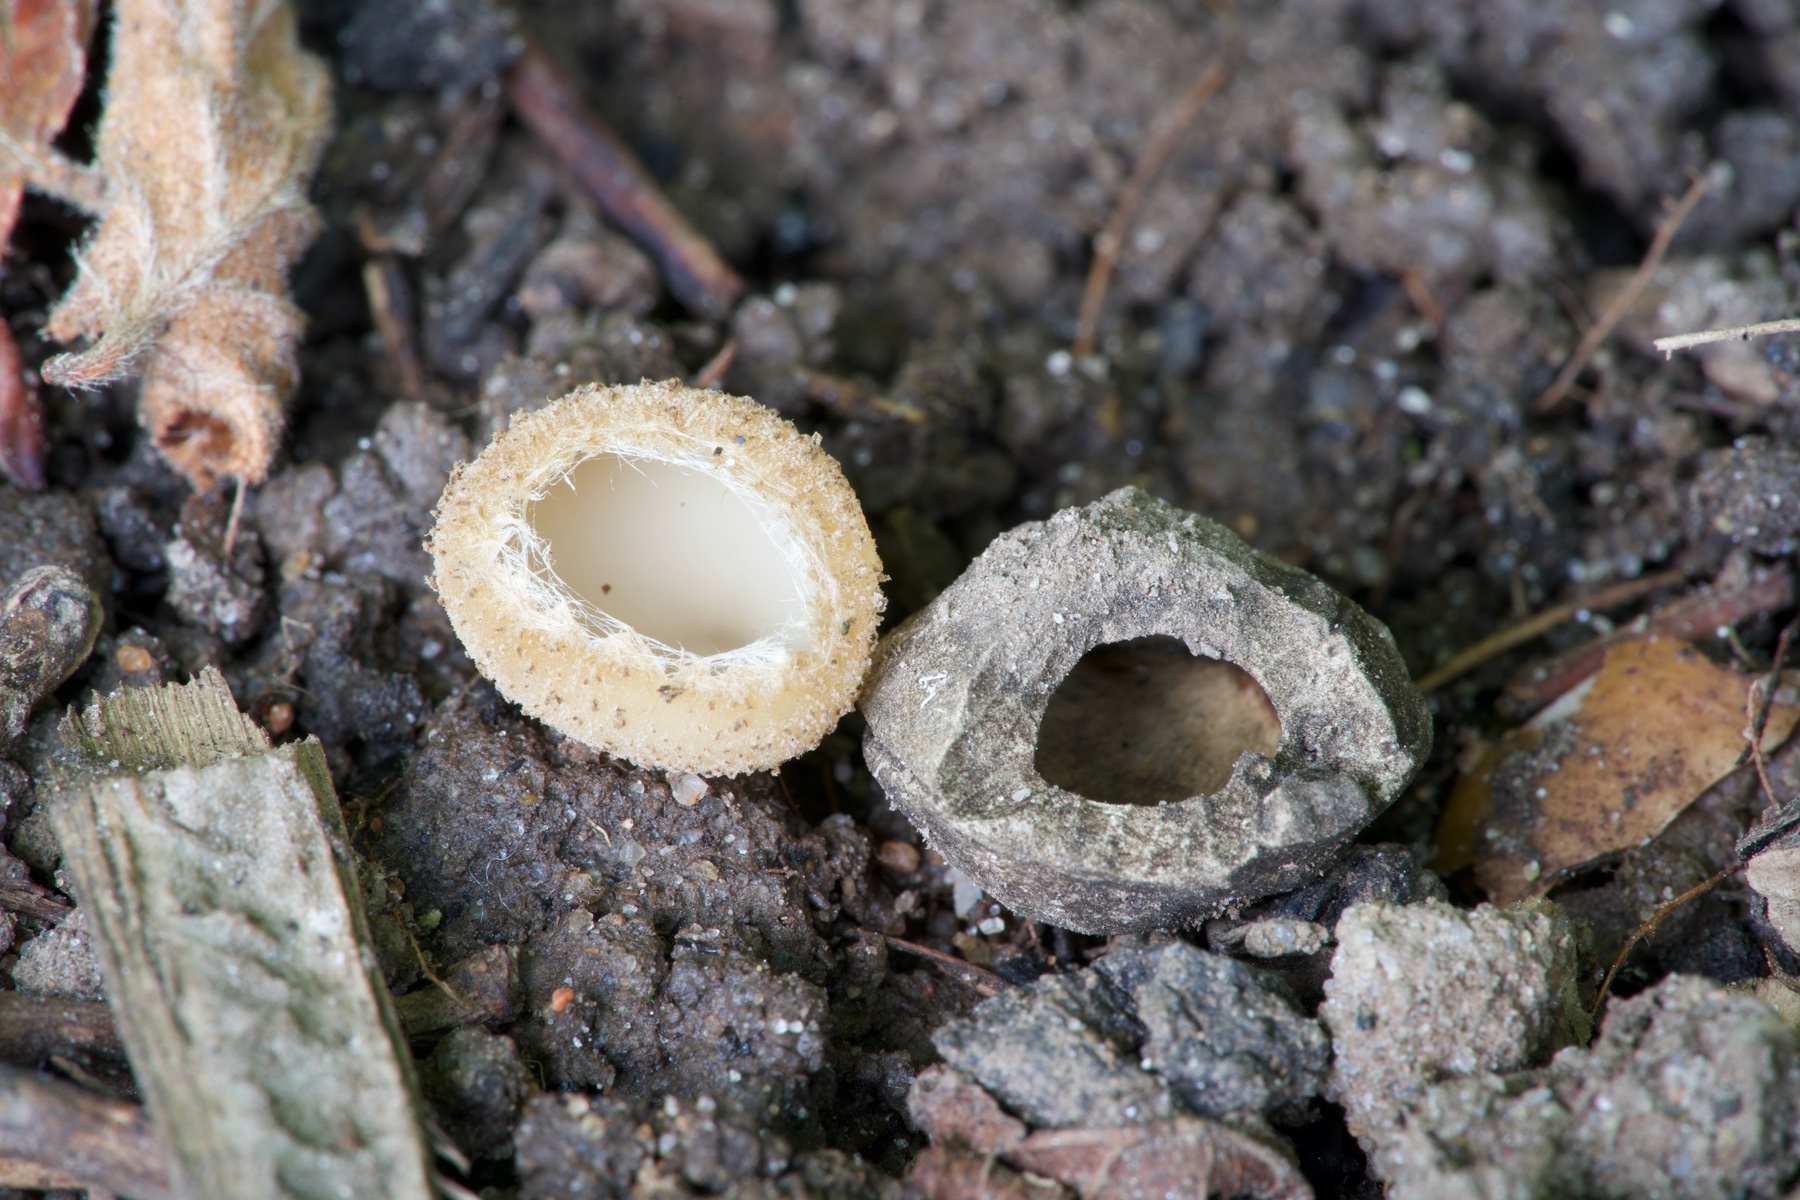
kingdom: Fungi
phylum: Ascomycota
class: Pezizomycetes
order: Pezizales
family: Pyronemataceae
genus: Tarzetta
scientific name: Tarzetta cupularis
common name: gulbrun pokalbæger
